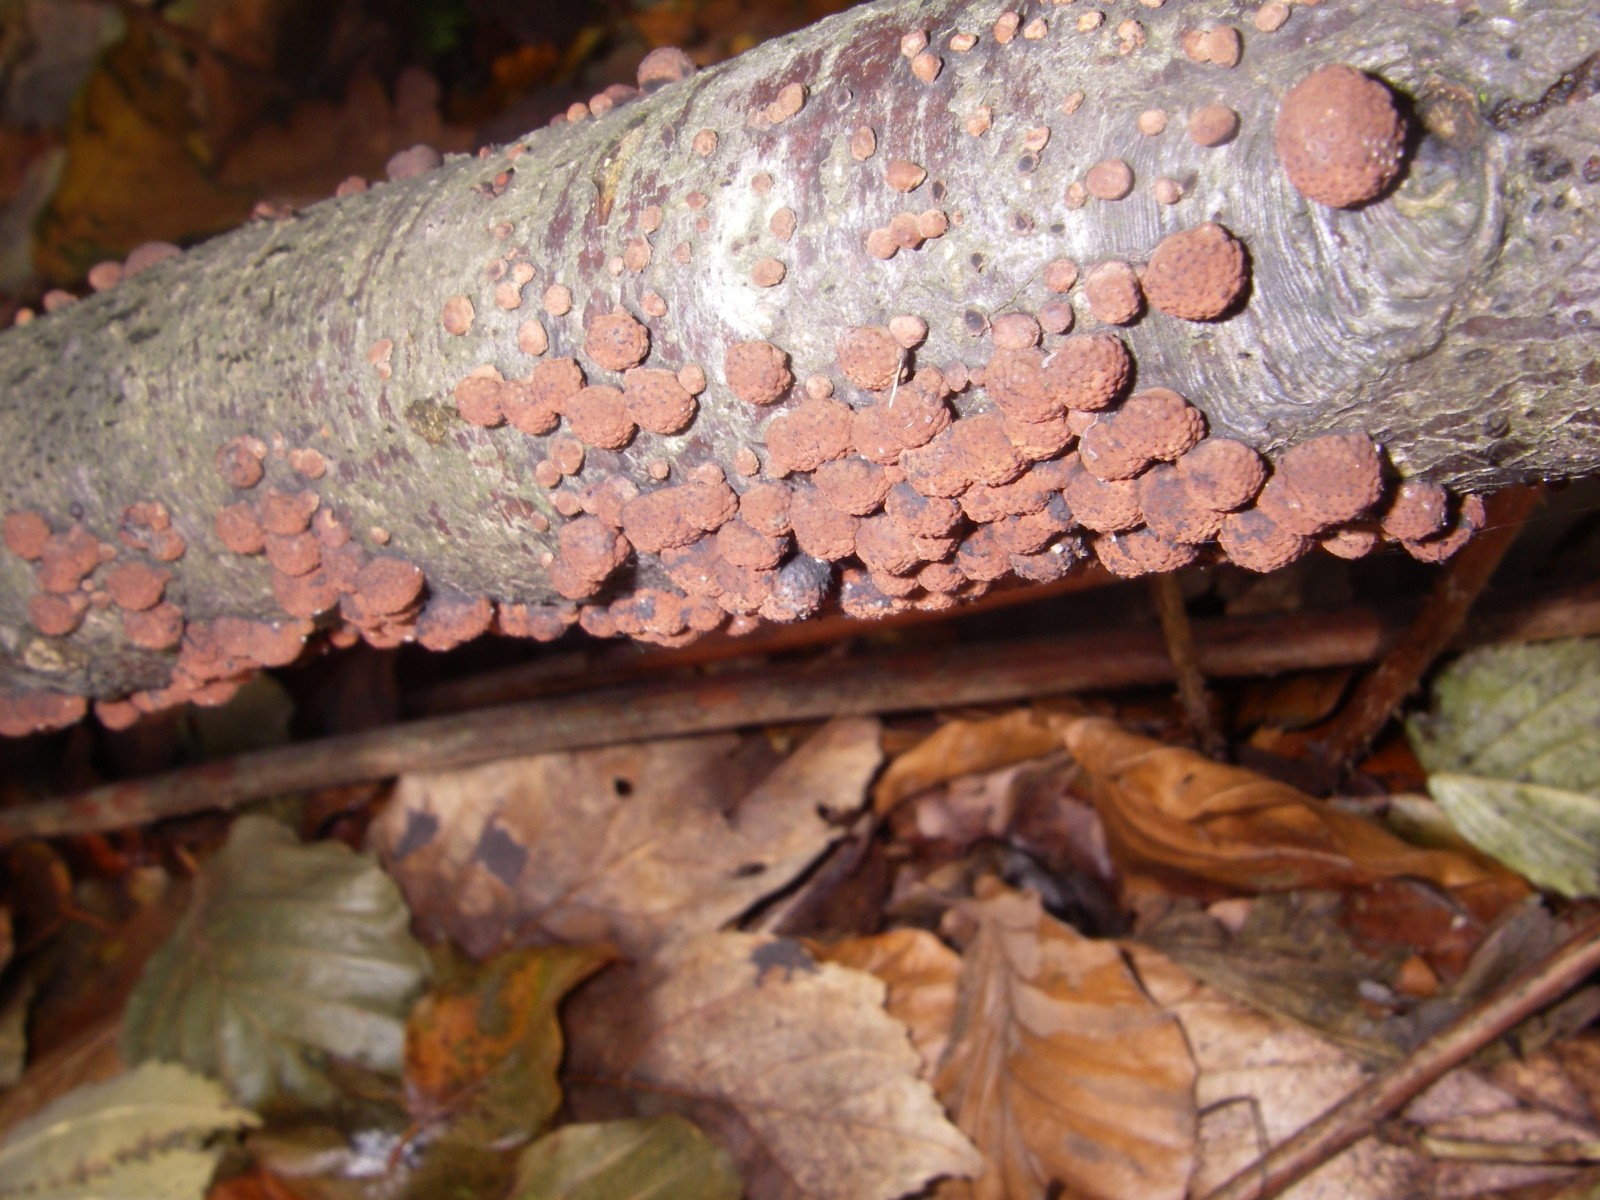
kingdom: Fungi
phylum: Ascomycota
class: Sordariomycetes
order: Xylariales
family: Hypoxylaceae
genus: Hypoxylon
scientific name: Hypoxylon fragiforme
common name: kuljordbær
